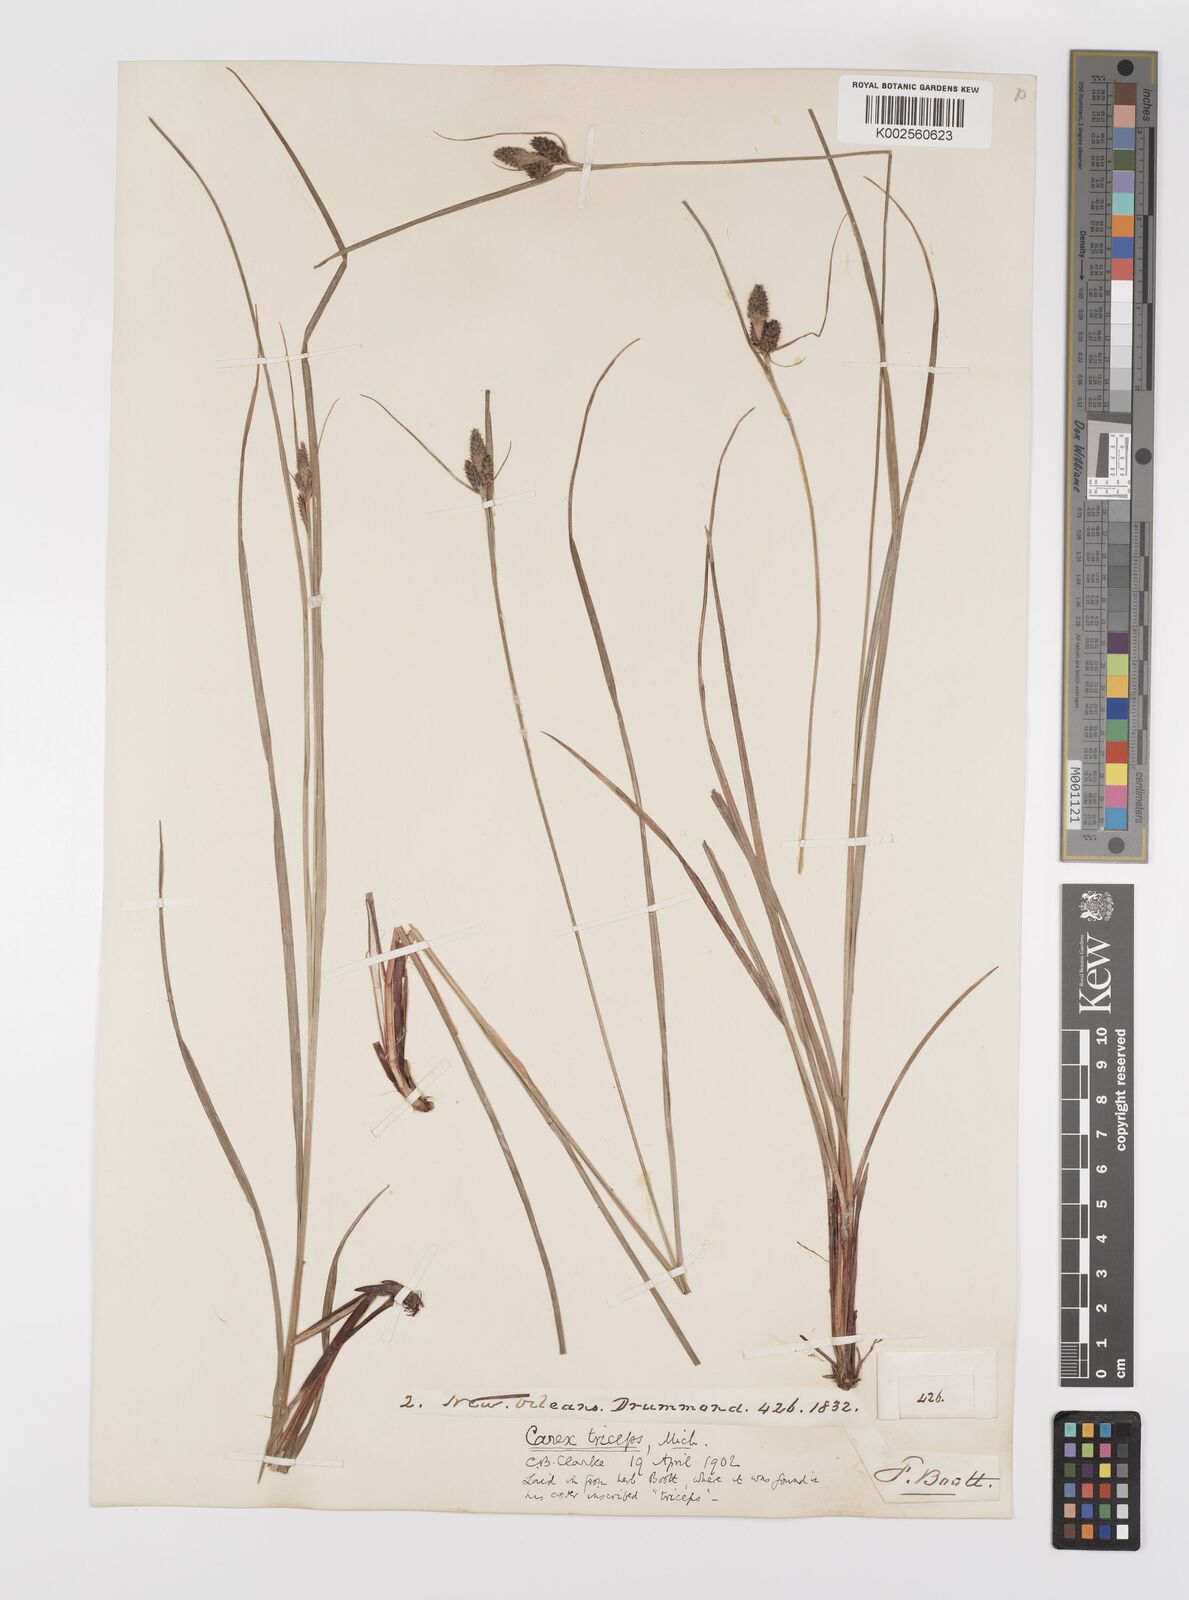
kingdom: Plantae
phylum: Tracheophyta
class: Liliopsida
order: Poales
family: Cyperaceae
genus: Carex
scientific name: Carex complanata
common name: Hirsute sedge
